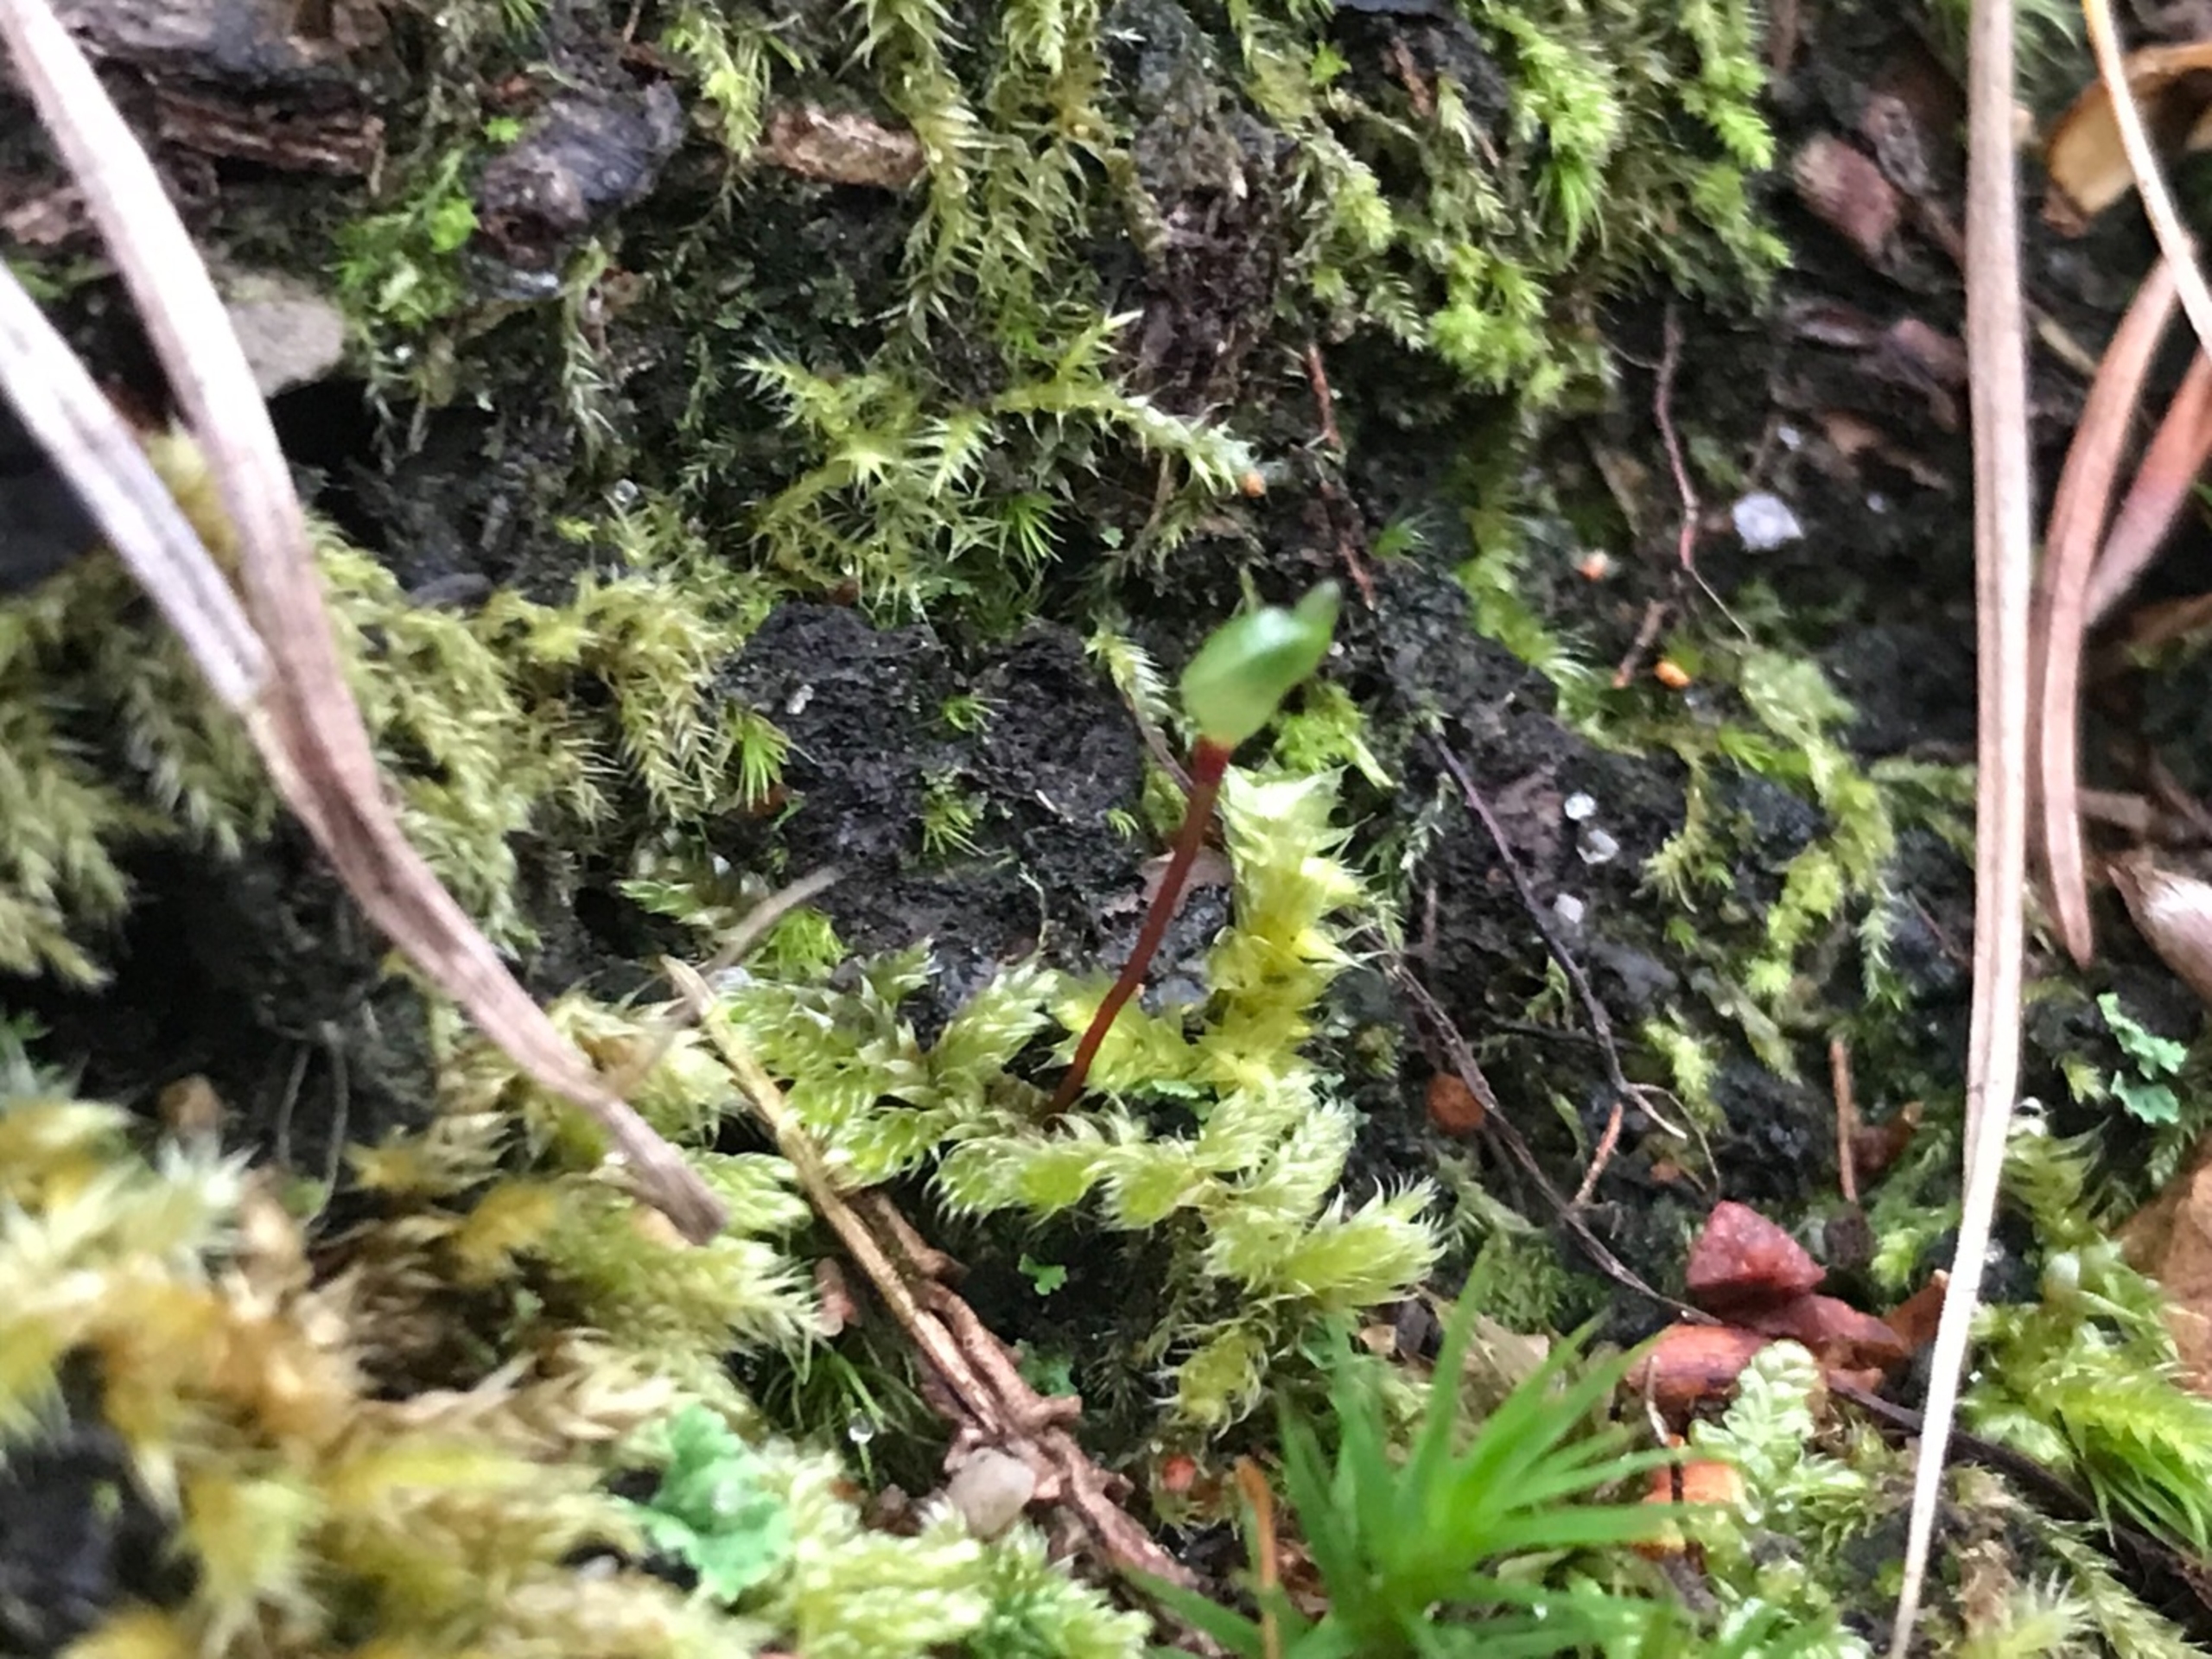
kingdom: Plantae
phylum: Bryophyta
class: Bryopsida
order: Buxbaumiales
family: Buxbaumiaceae
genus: Buxbaumia
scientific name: Buxbaumia aphylla
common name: Rundkapslet buxbaumia
